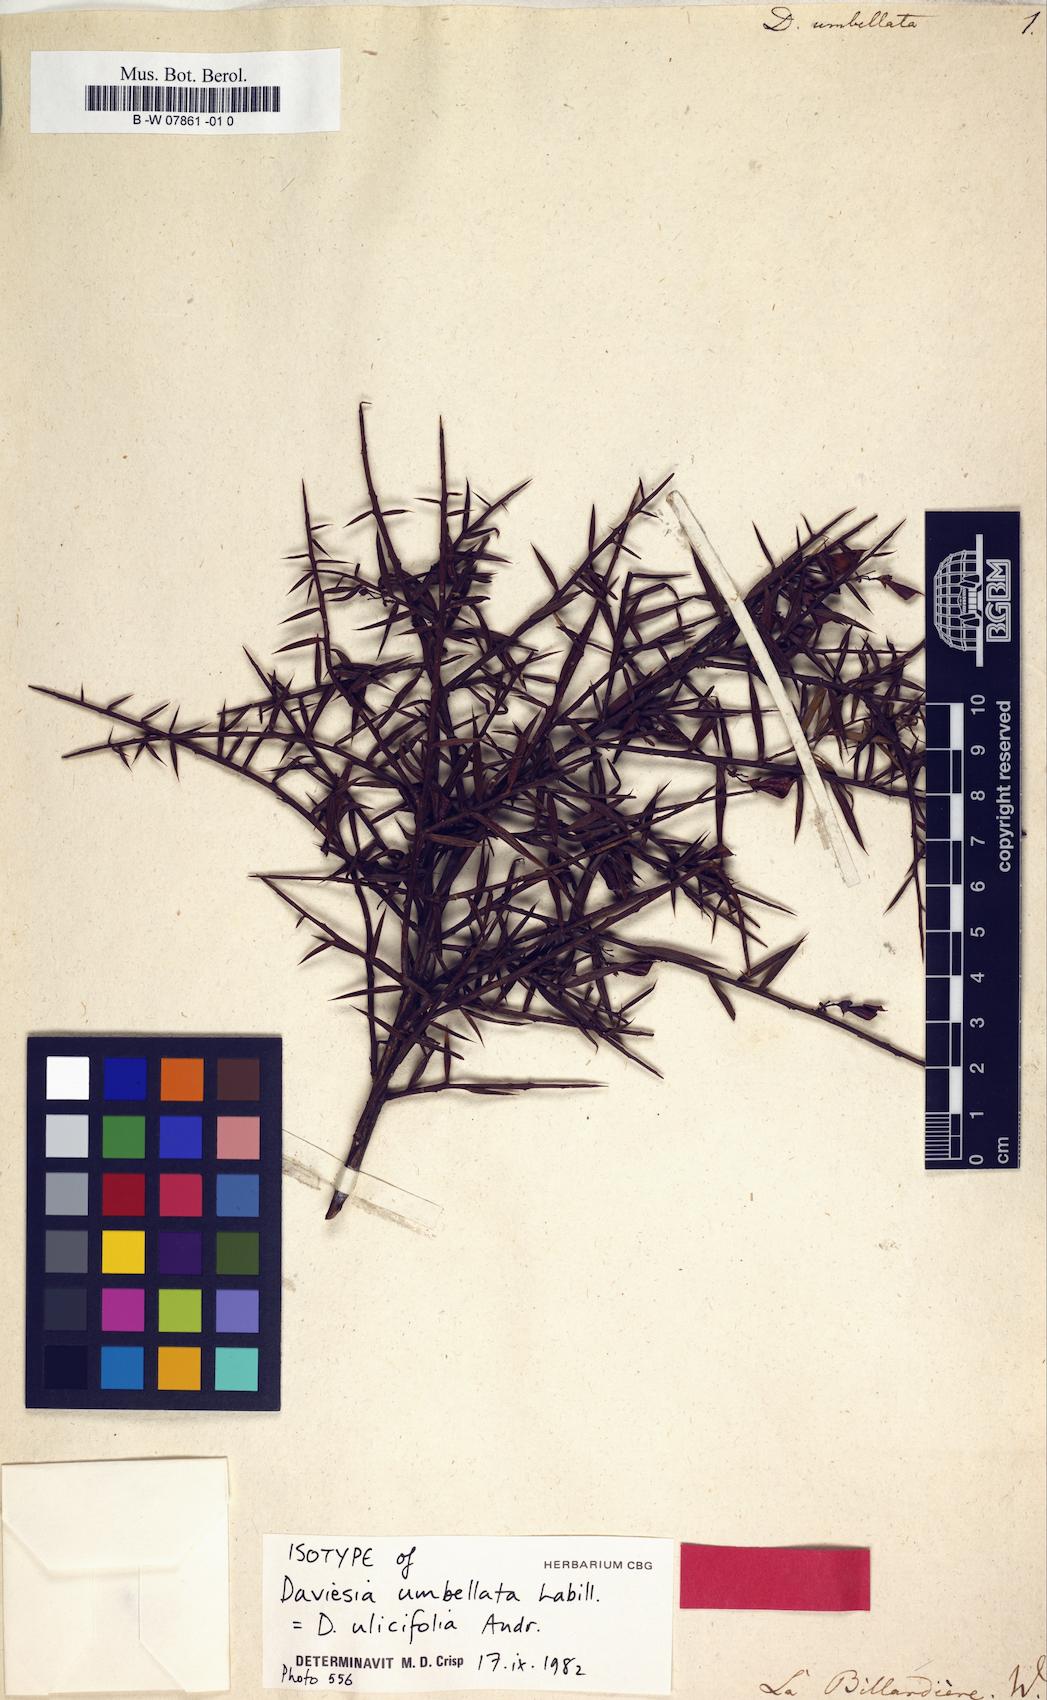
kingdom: Plantae
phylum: Tracheophyta
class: Magnoliopsida
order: Fabales
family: Fabaceae
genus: Daviesia
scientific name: Daviesia ulicifolia
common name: Gorse bitter-pea
